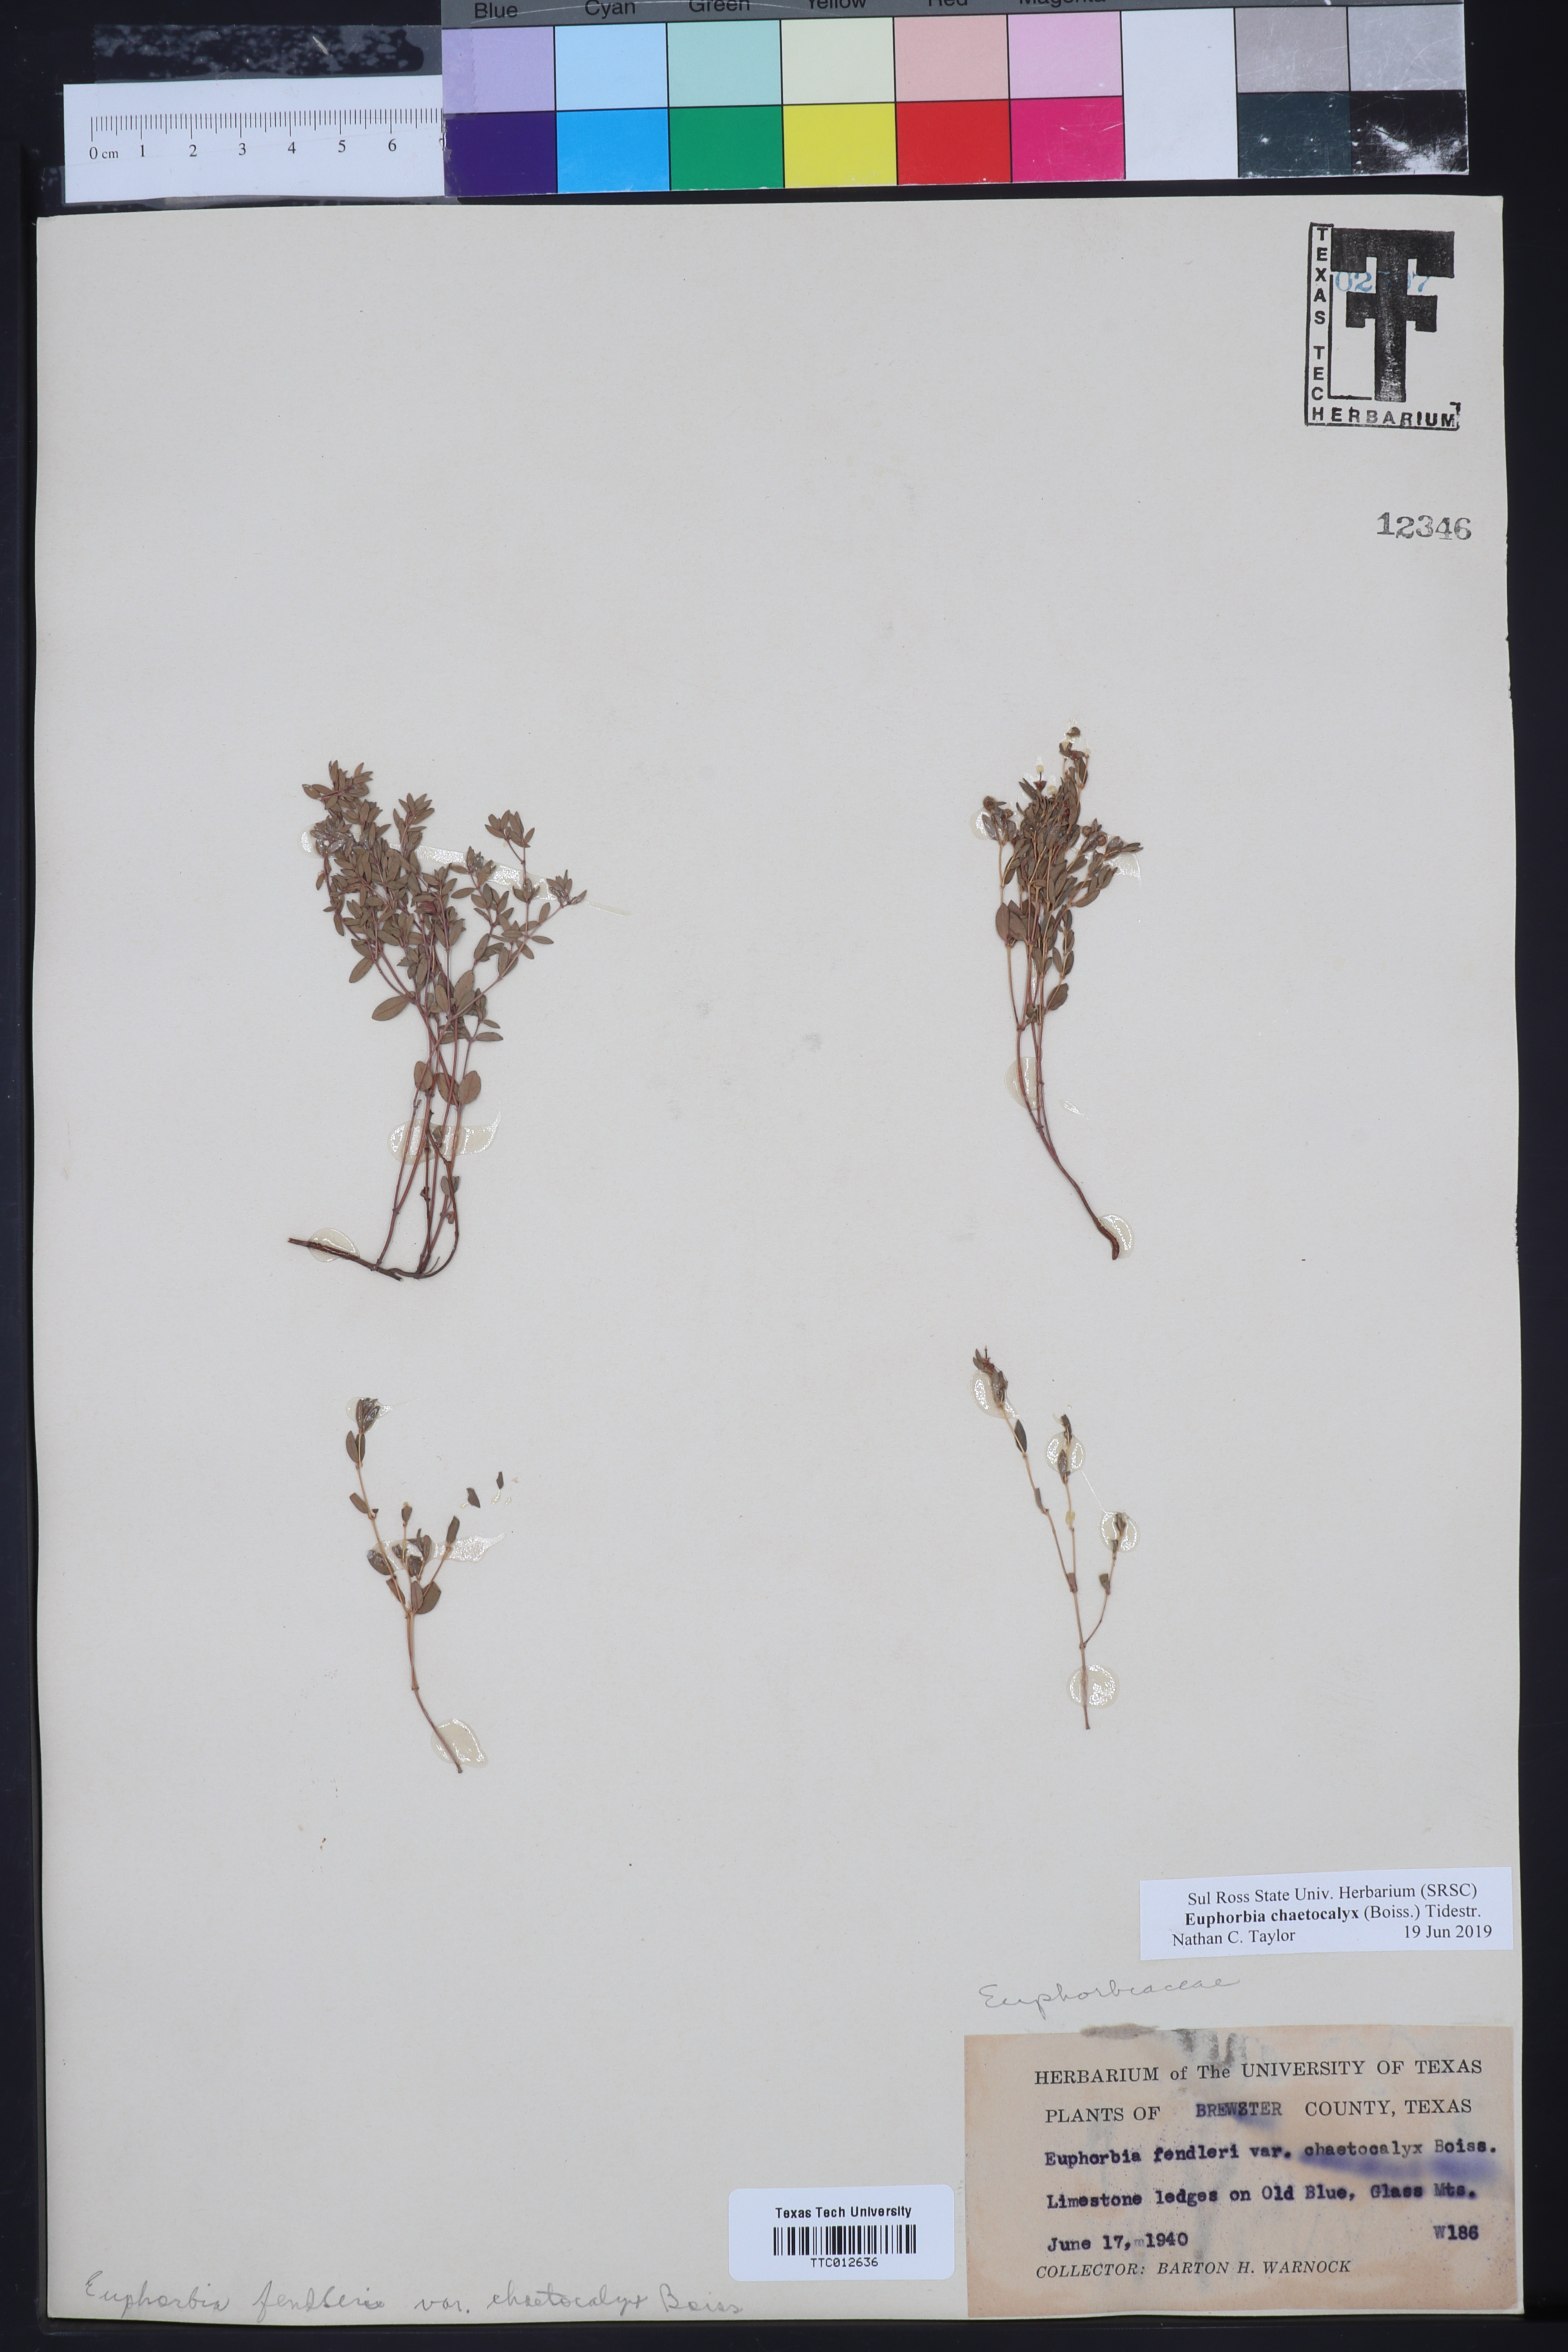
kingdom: Plantae
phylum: Tracheophyta
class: Magnoliopsida
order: Malpighiales
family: Euphorbiaceae
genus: Euphorbia
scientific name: Euphorbia chaetocalyx
